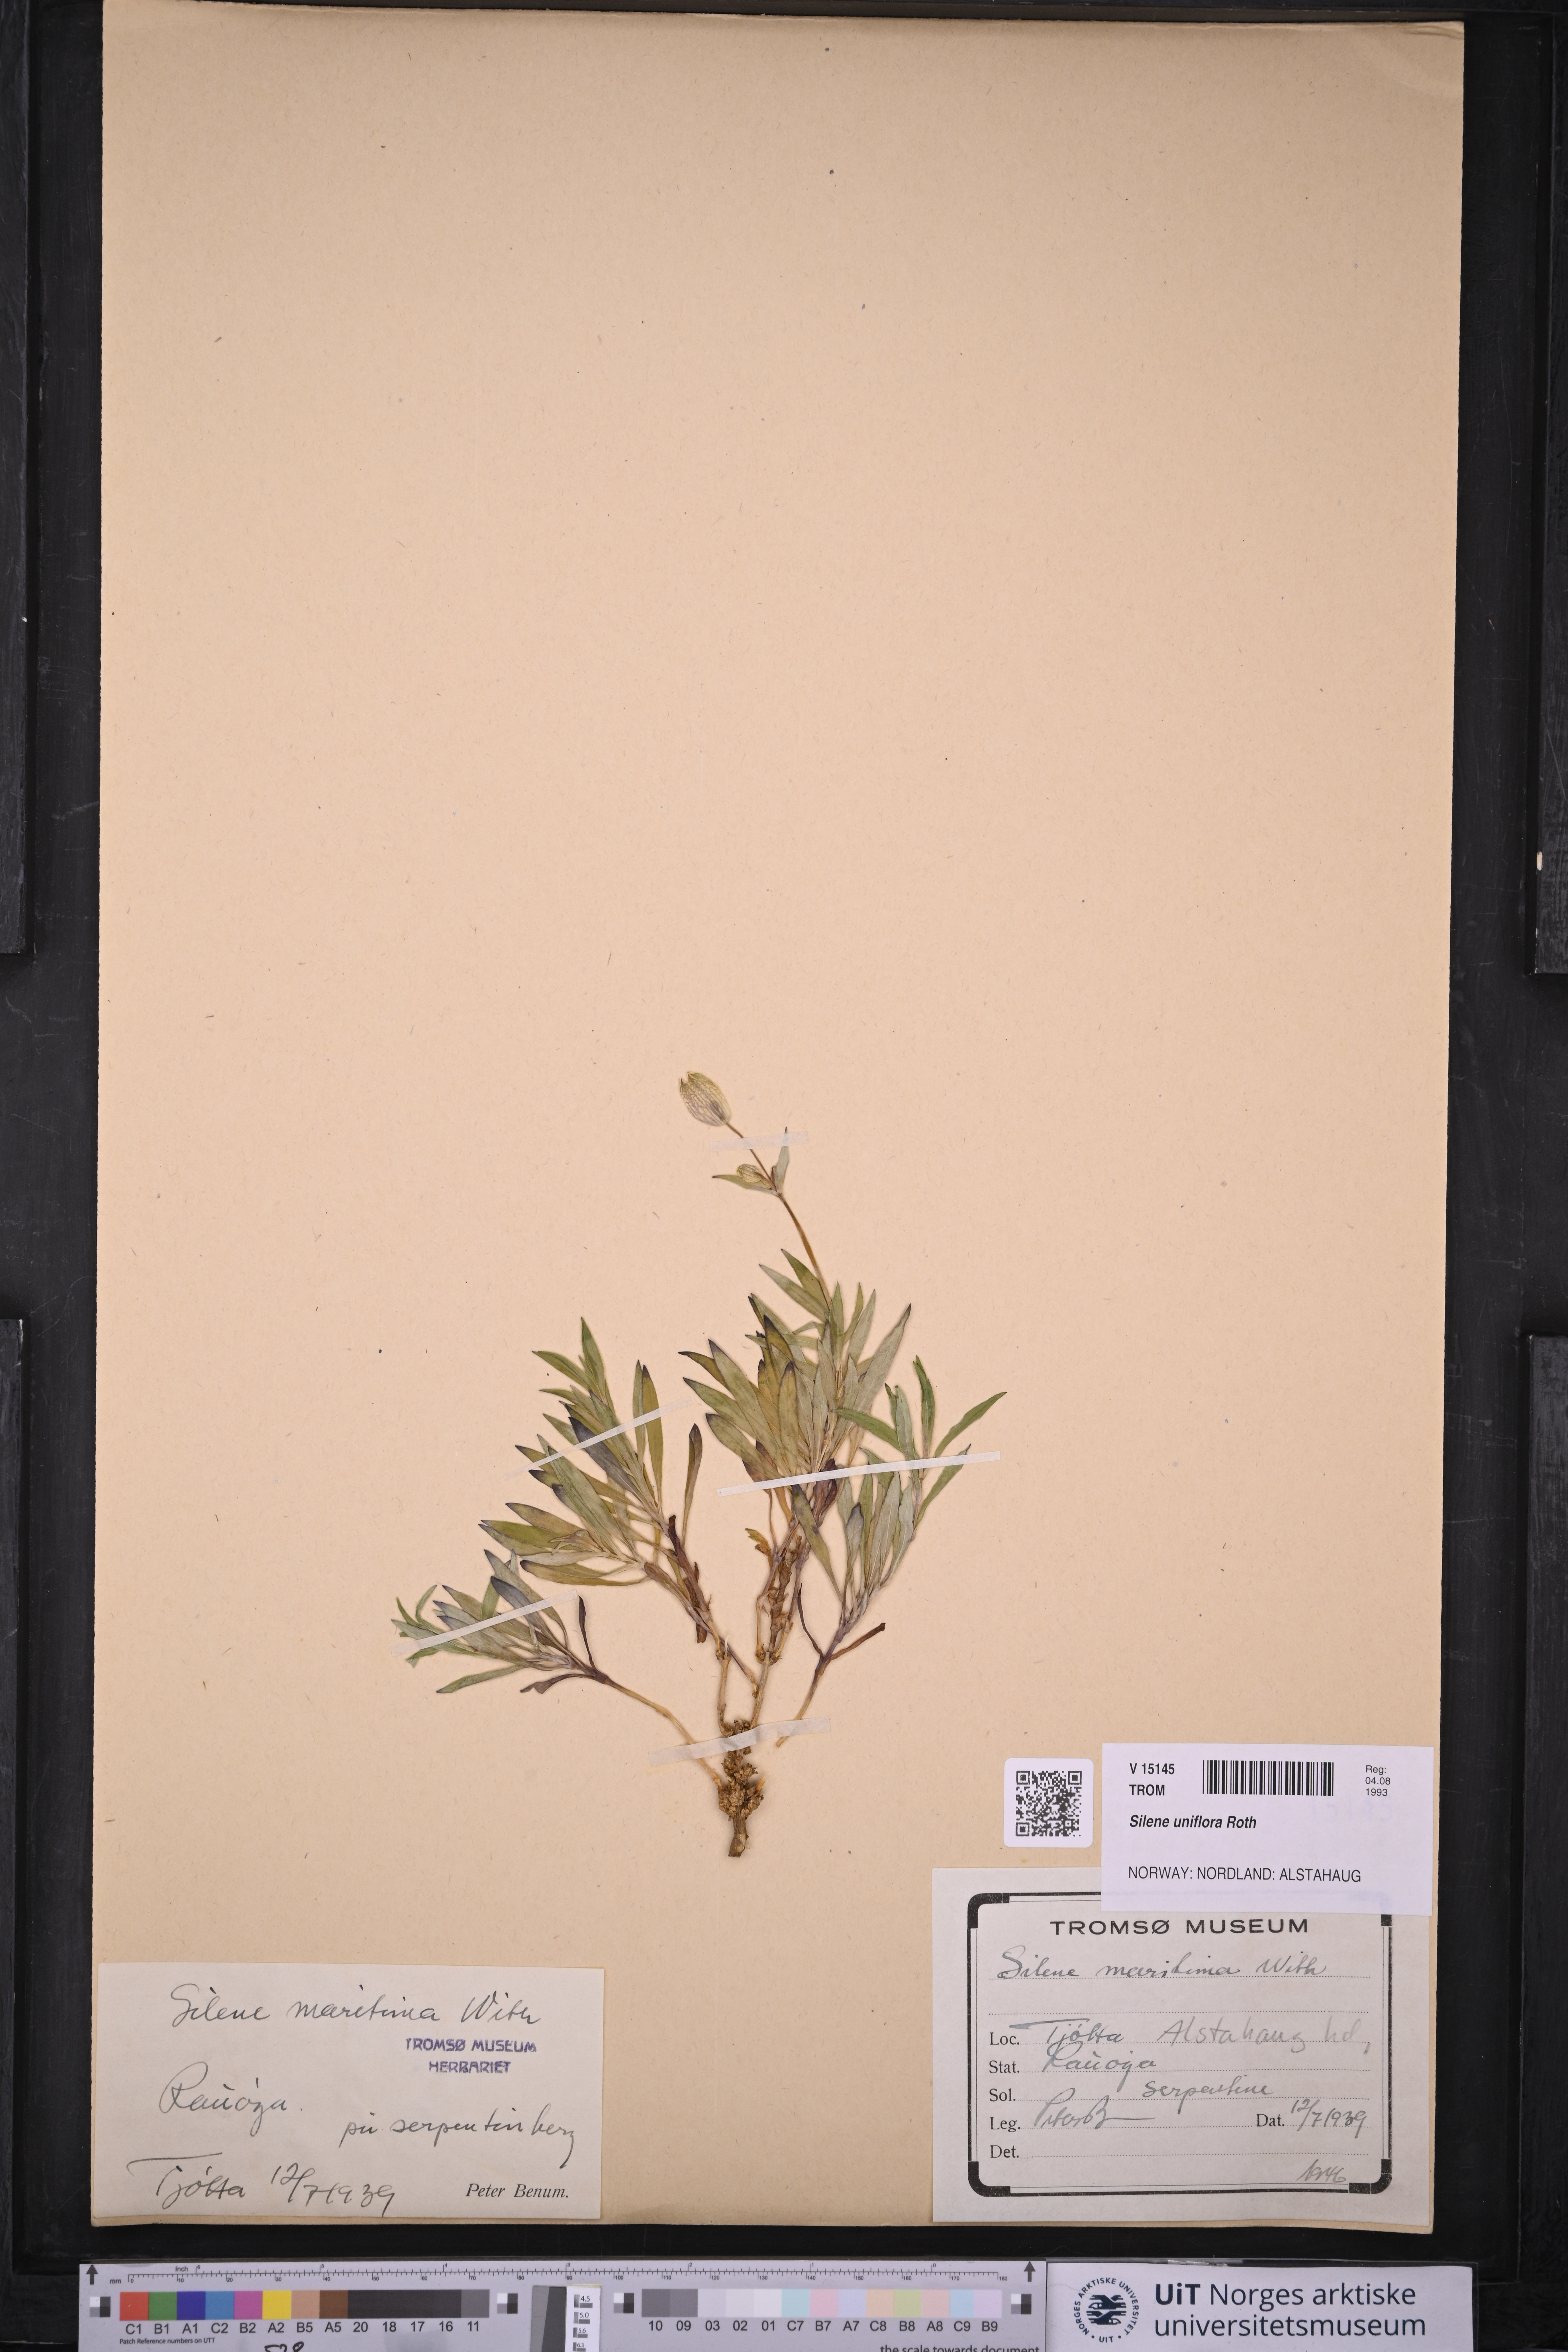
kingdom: Plantae
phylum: Tracheophyta
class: Magnoliopsida
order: Caryophyllales
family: Caryophyllaceae
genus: Silene
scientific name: Silene uniflora
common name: Sea campion
